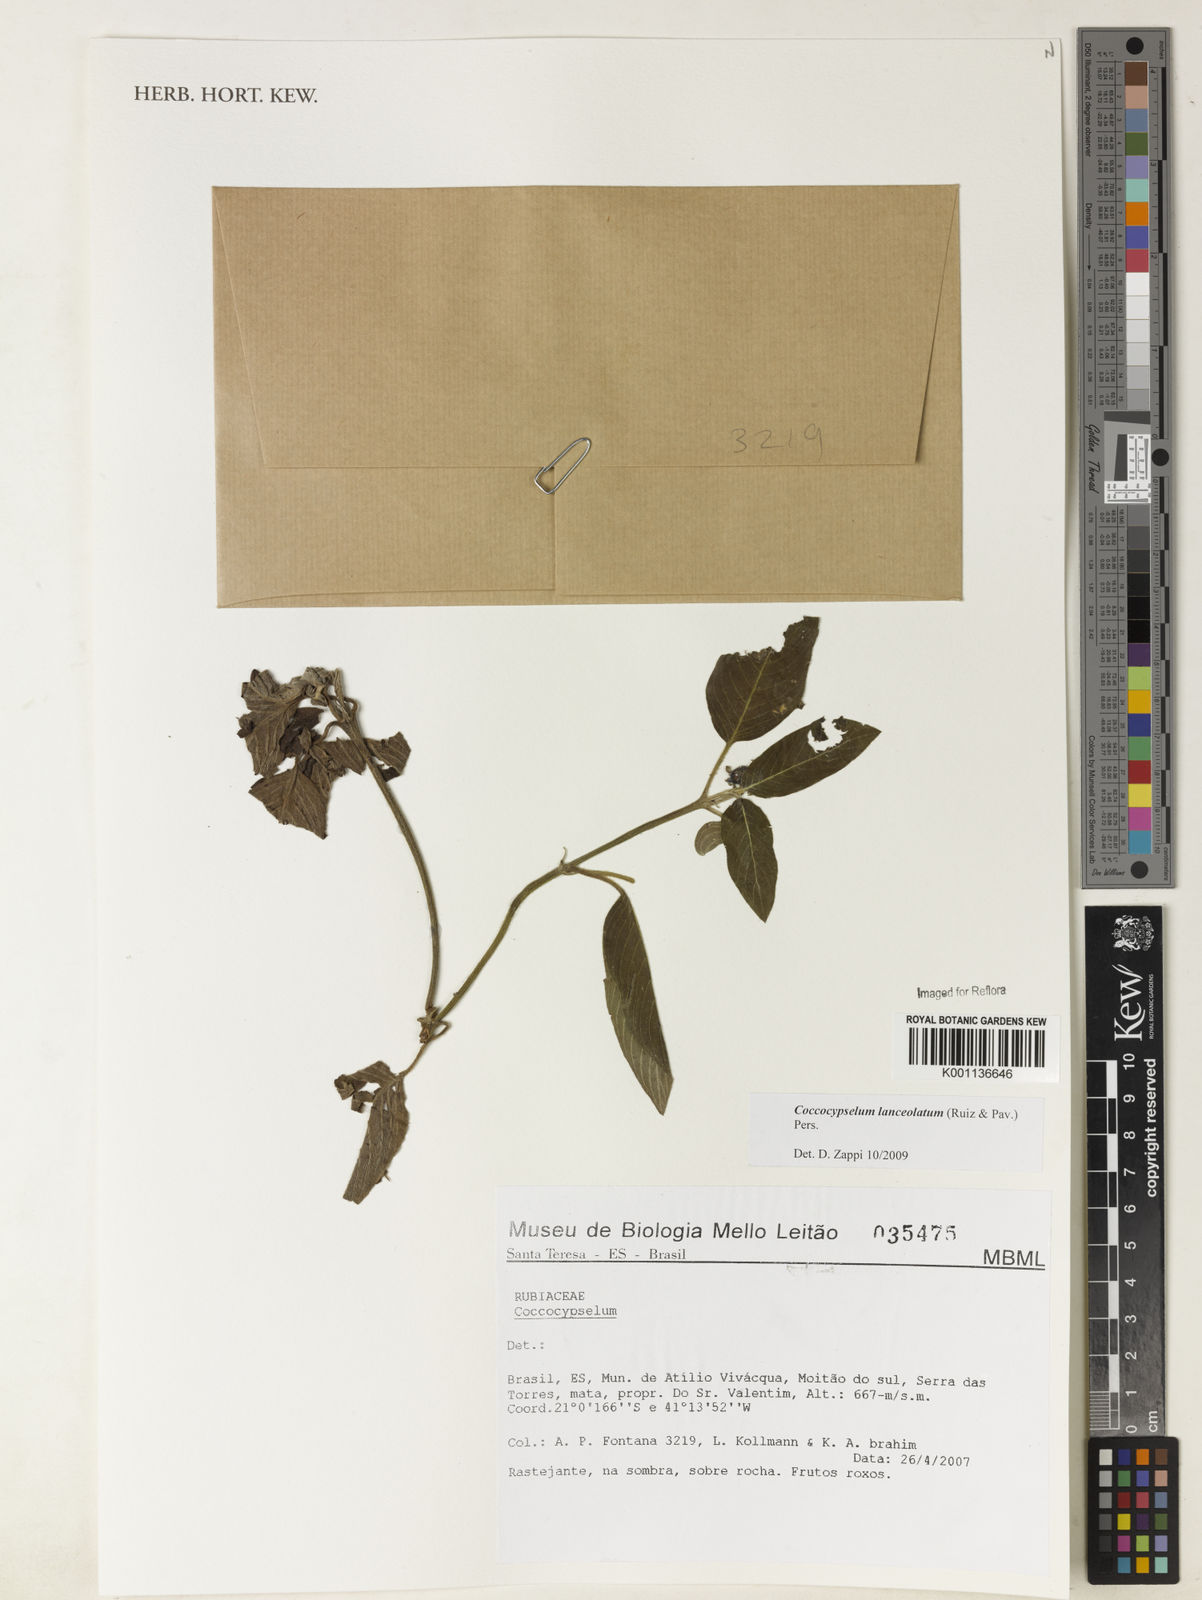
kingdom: Plantae
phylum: Tracheophyta
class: Magnoliopsida
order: Gentianales
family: Rubiaceae
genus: Coccocypselum
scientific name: Coccocypselum lanceolatum
